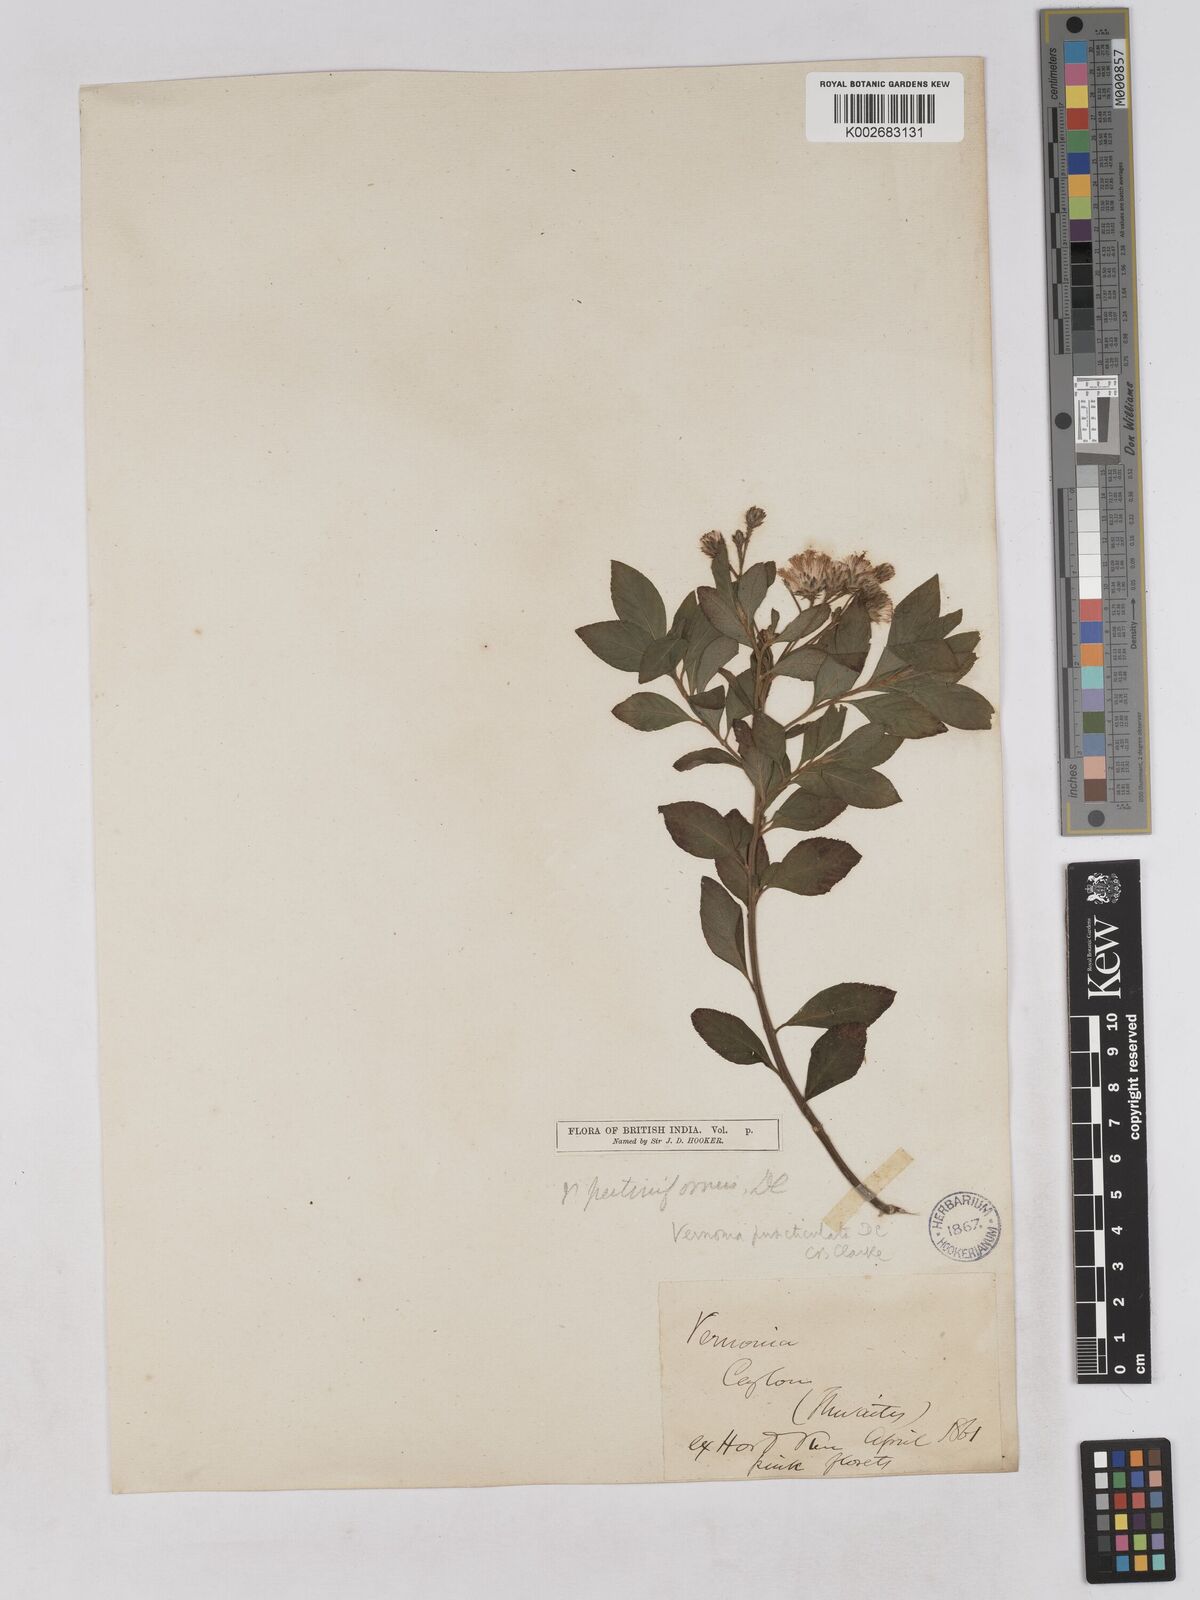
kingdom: Plantae
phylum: Tracheophyta
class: Magnoliopsida
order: Asterales
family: Asteraceae
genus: Gymnanthemum
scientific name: Gymnanthemum pectiniforme
